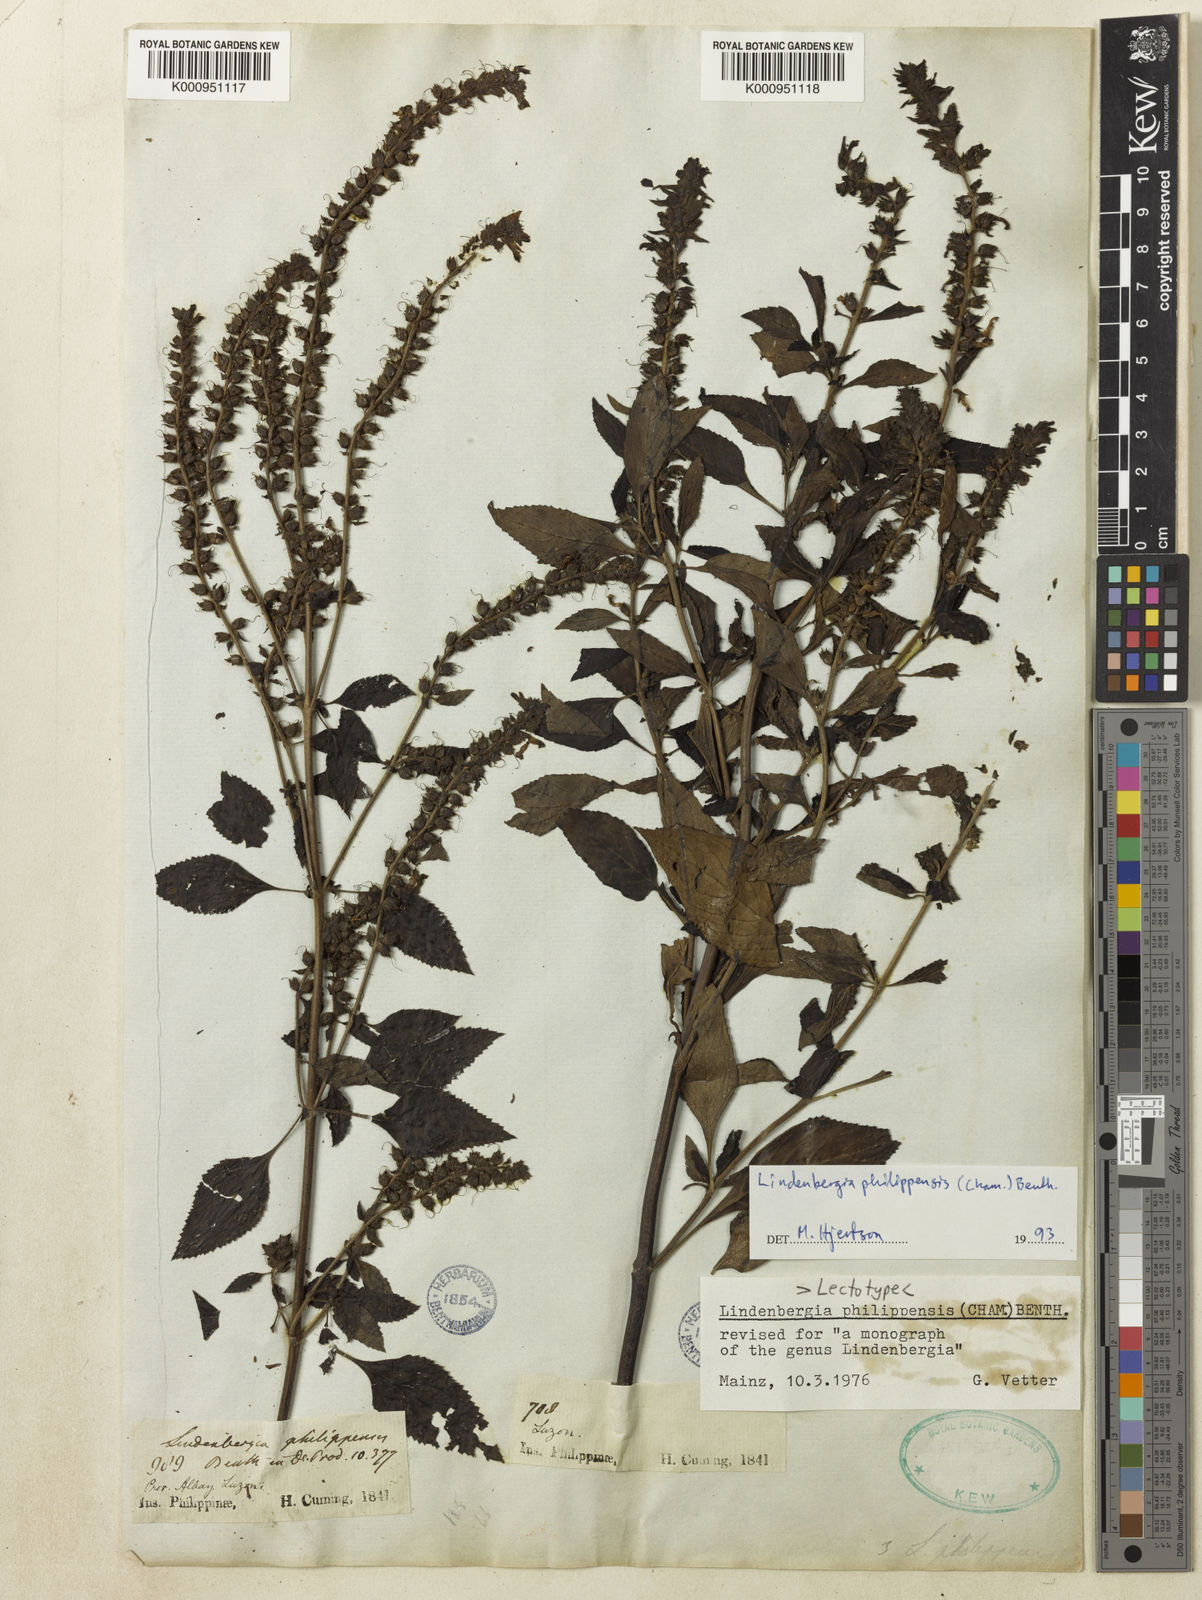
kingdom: Plantae
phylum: Tracheophyta
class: Magnoliopsida
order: Lamiales
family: Orobanchaceae
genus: Lindenbergia
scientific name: Lindenbergia philippensis
